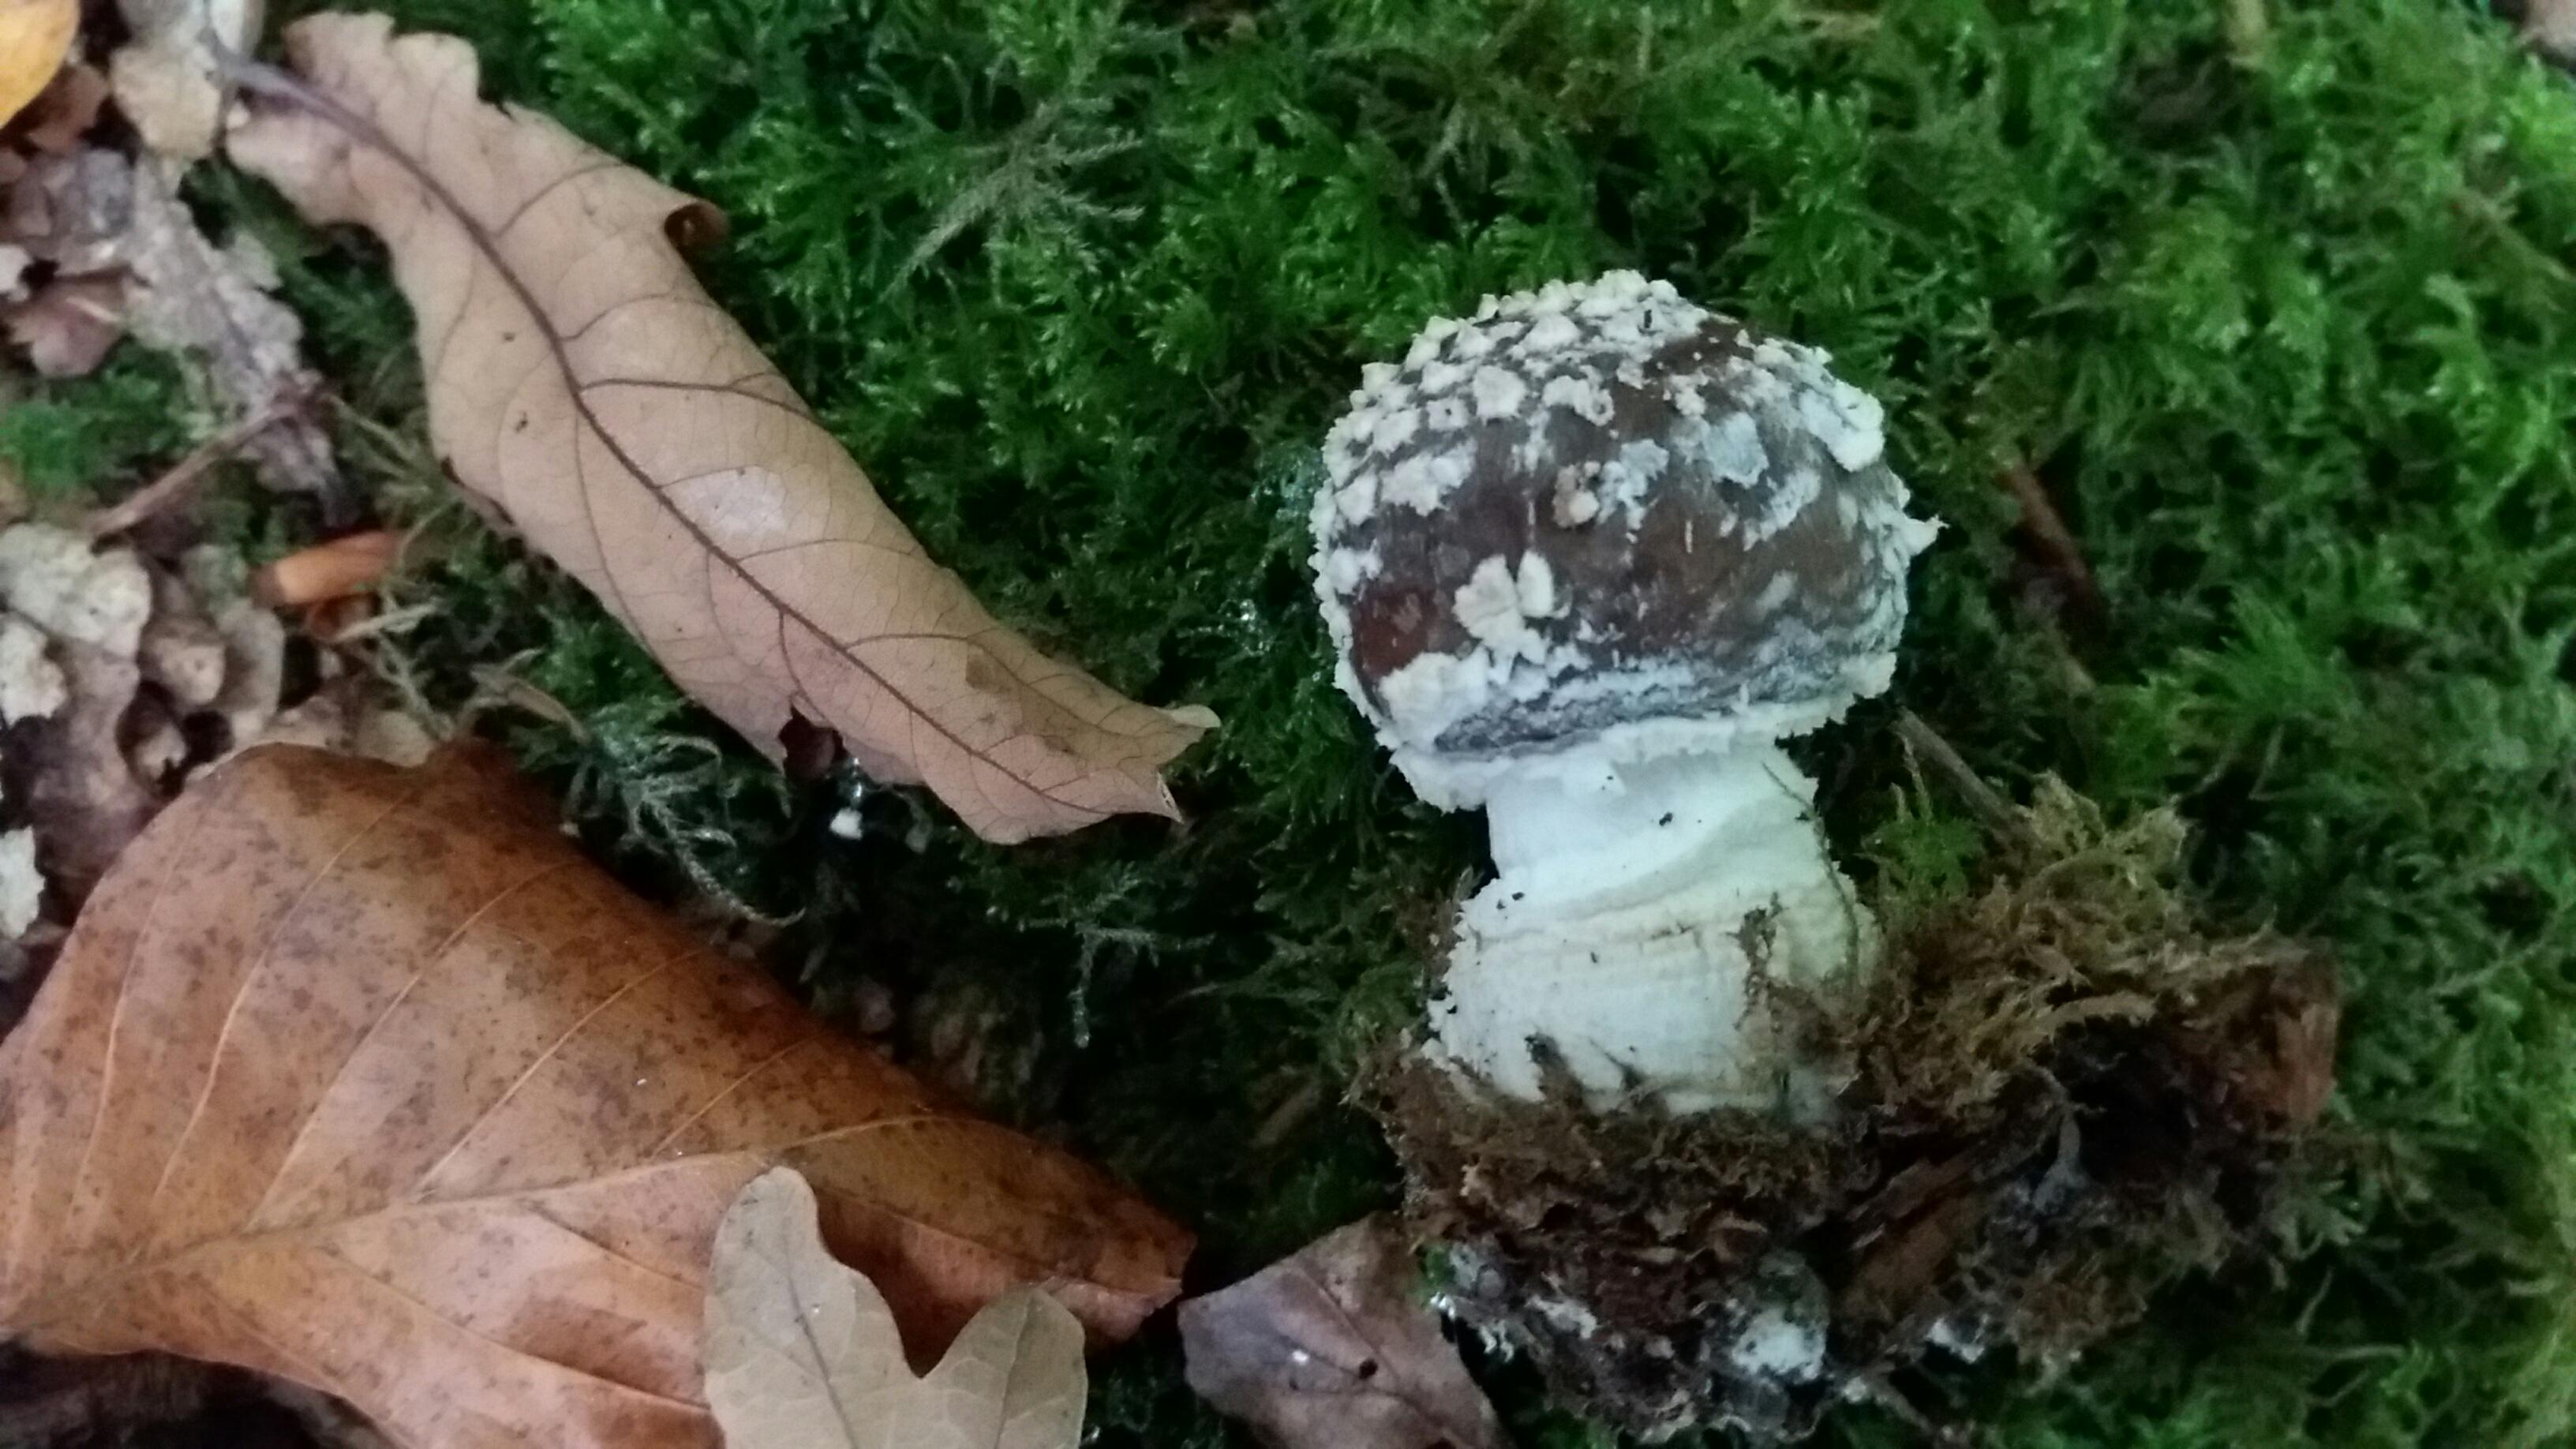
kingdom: Fungi
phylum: Basidiomycota
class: Agaricomycetes
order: Agaricales
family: Amanitaceae
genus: Amanita
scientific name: Amanita pantherina
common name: panter-fluesvamp
